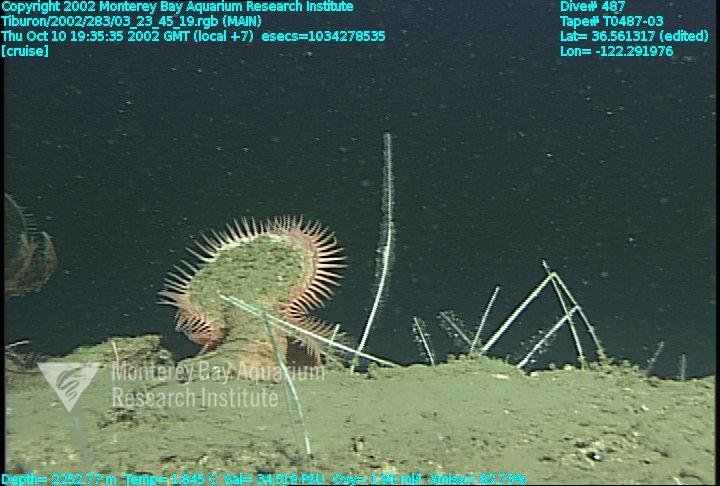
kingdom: Animalia
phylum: Porifera
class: Demospongiae
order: Poecilosclerida
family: Cladorhizidae
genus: Asbestopluma
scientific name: Asbestopluma
